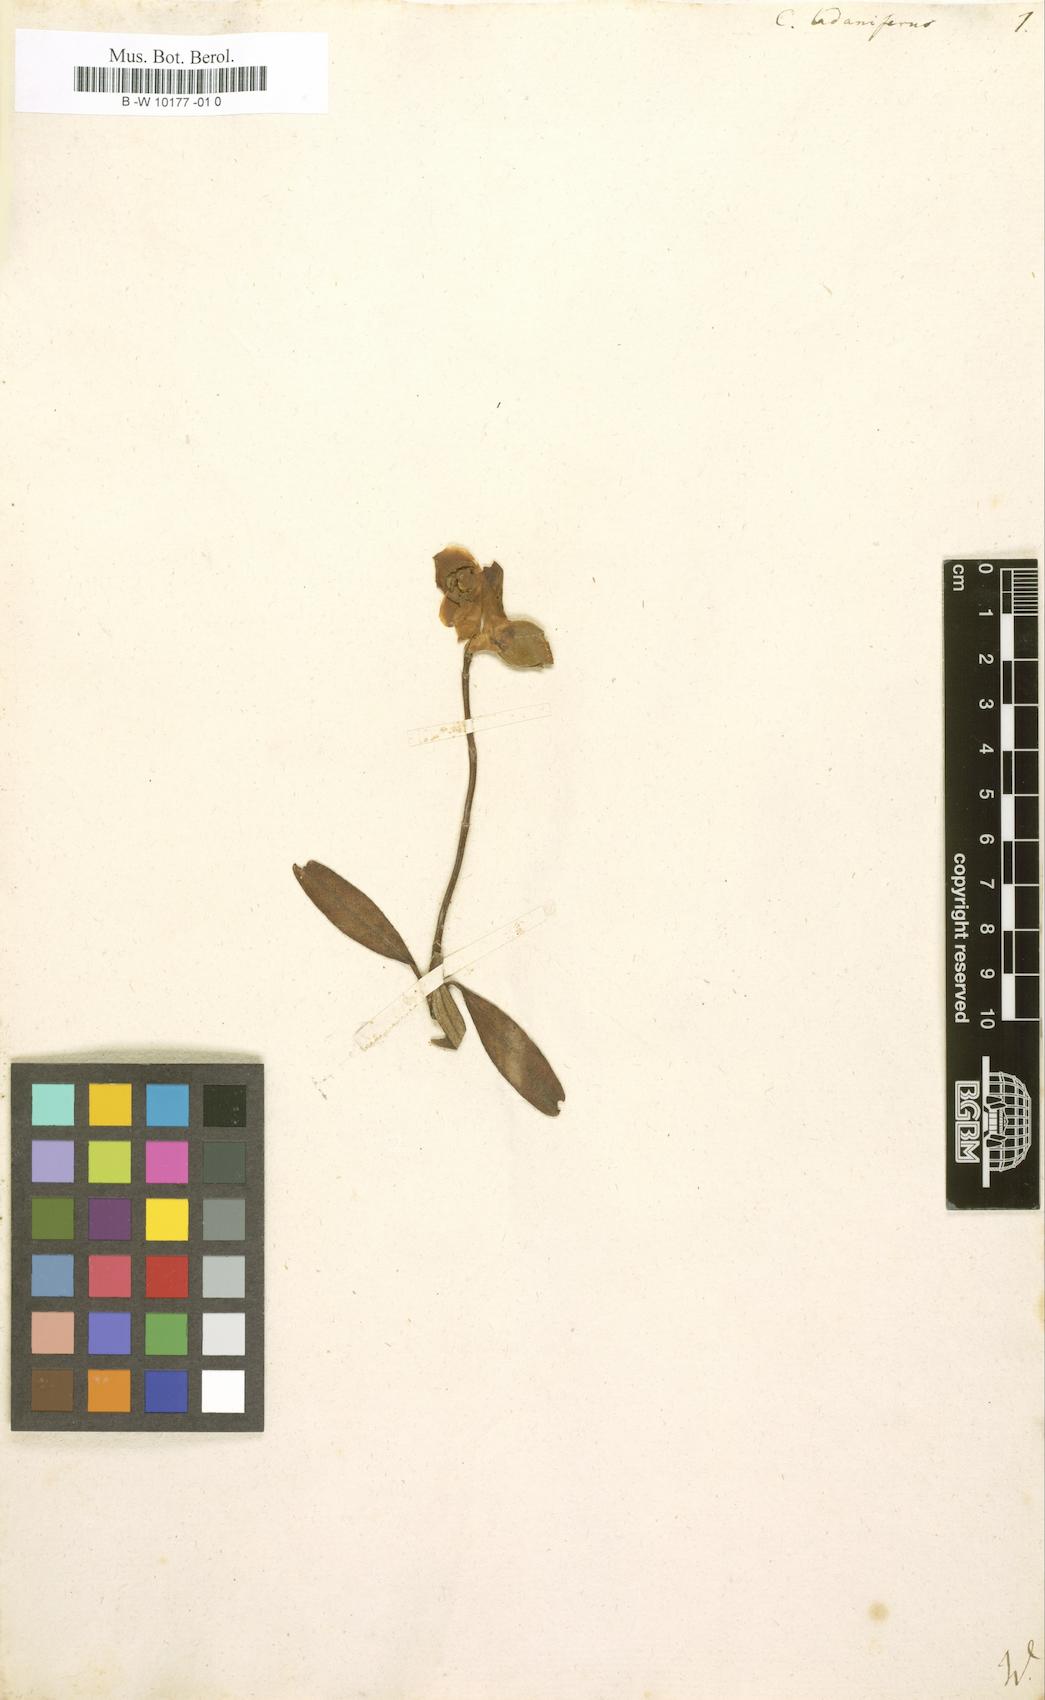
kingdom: Plantae
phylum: Tracheophyta
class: Magnoliopsida
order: Malvales
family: Cistaceae
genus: Cistus
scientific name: Cistus creticus
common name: Cretan rockrose
